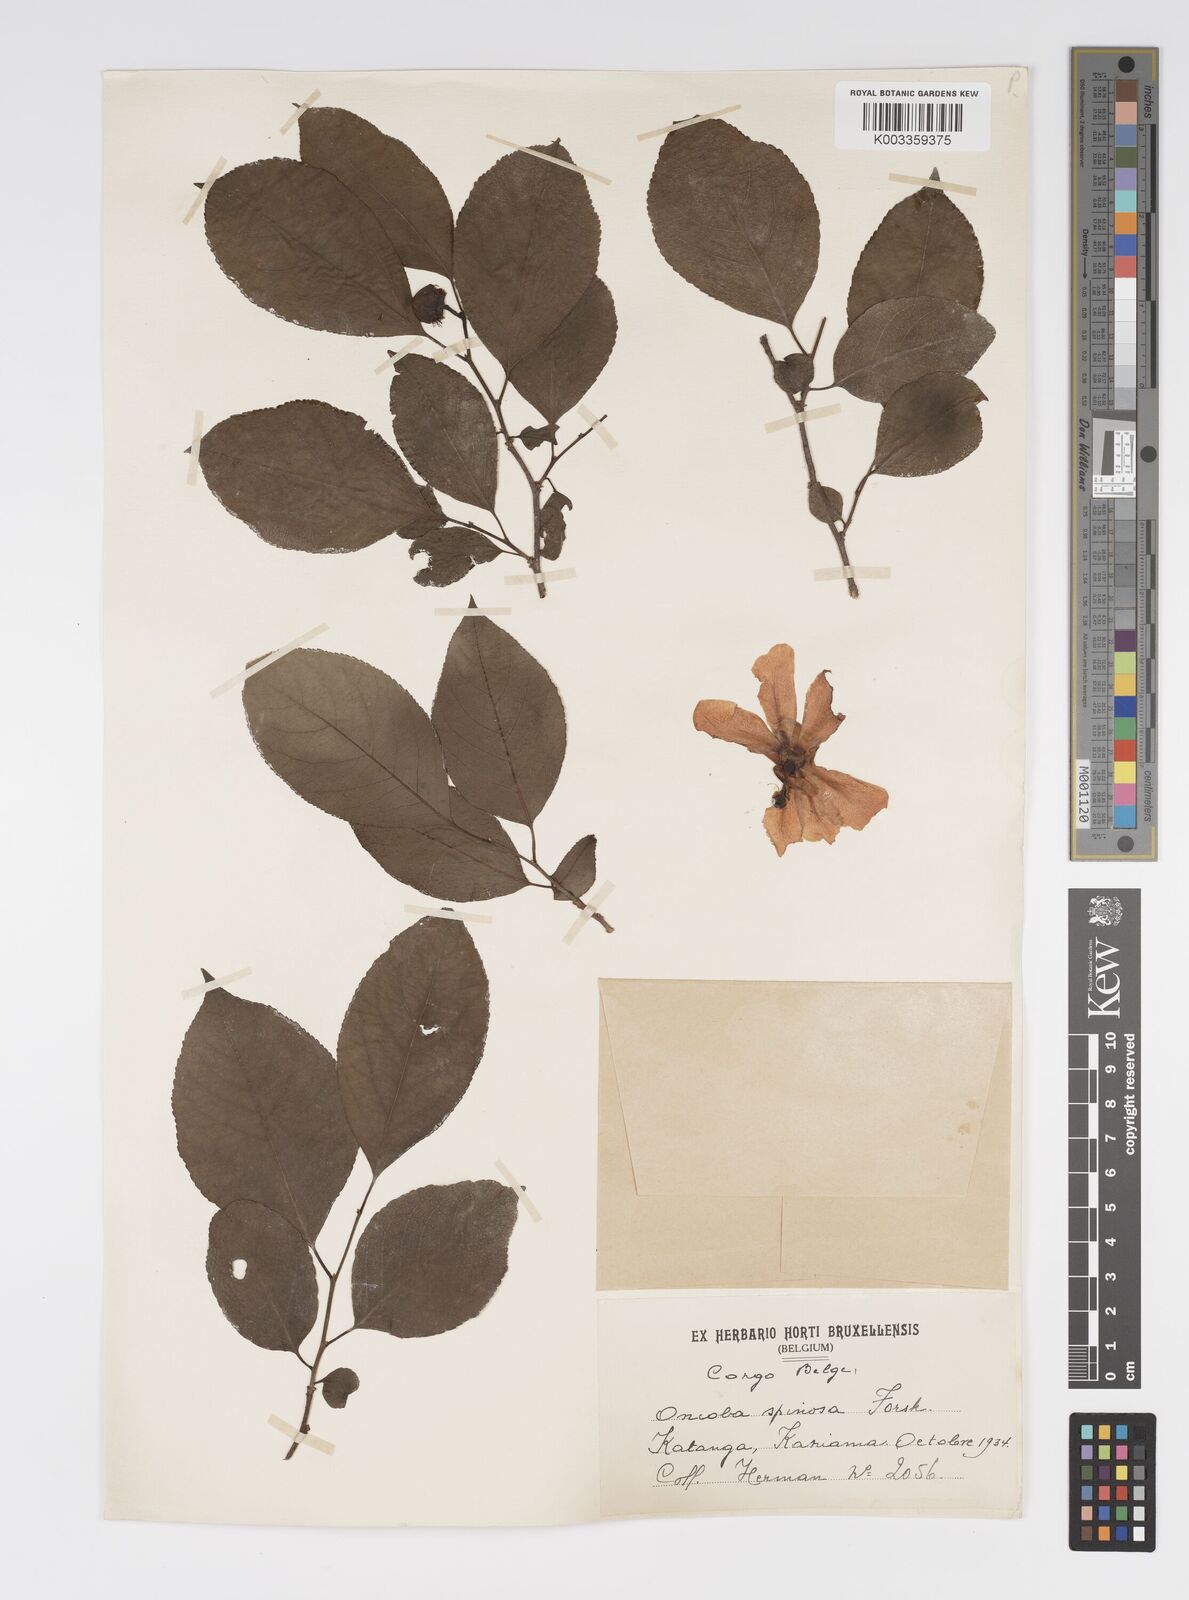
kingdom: Plantae
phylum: Tracheophyta
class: Magnoliopsida
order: Malpighiales
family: Salicaceae
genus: Oncoba
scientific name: Oncoba spinosa
